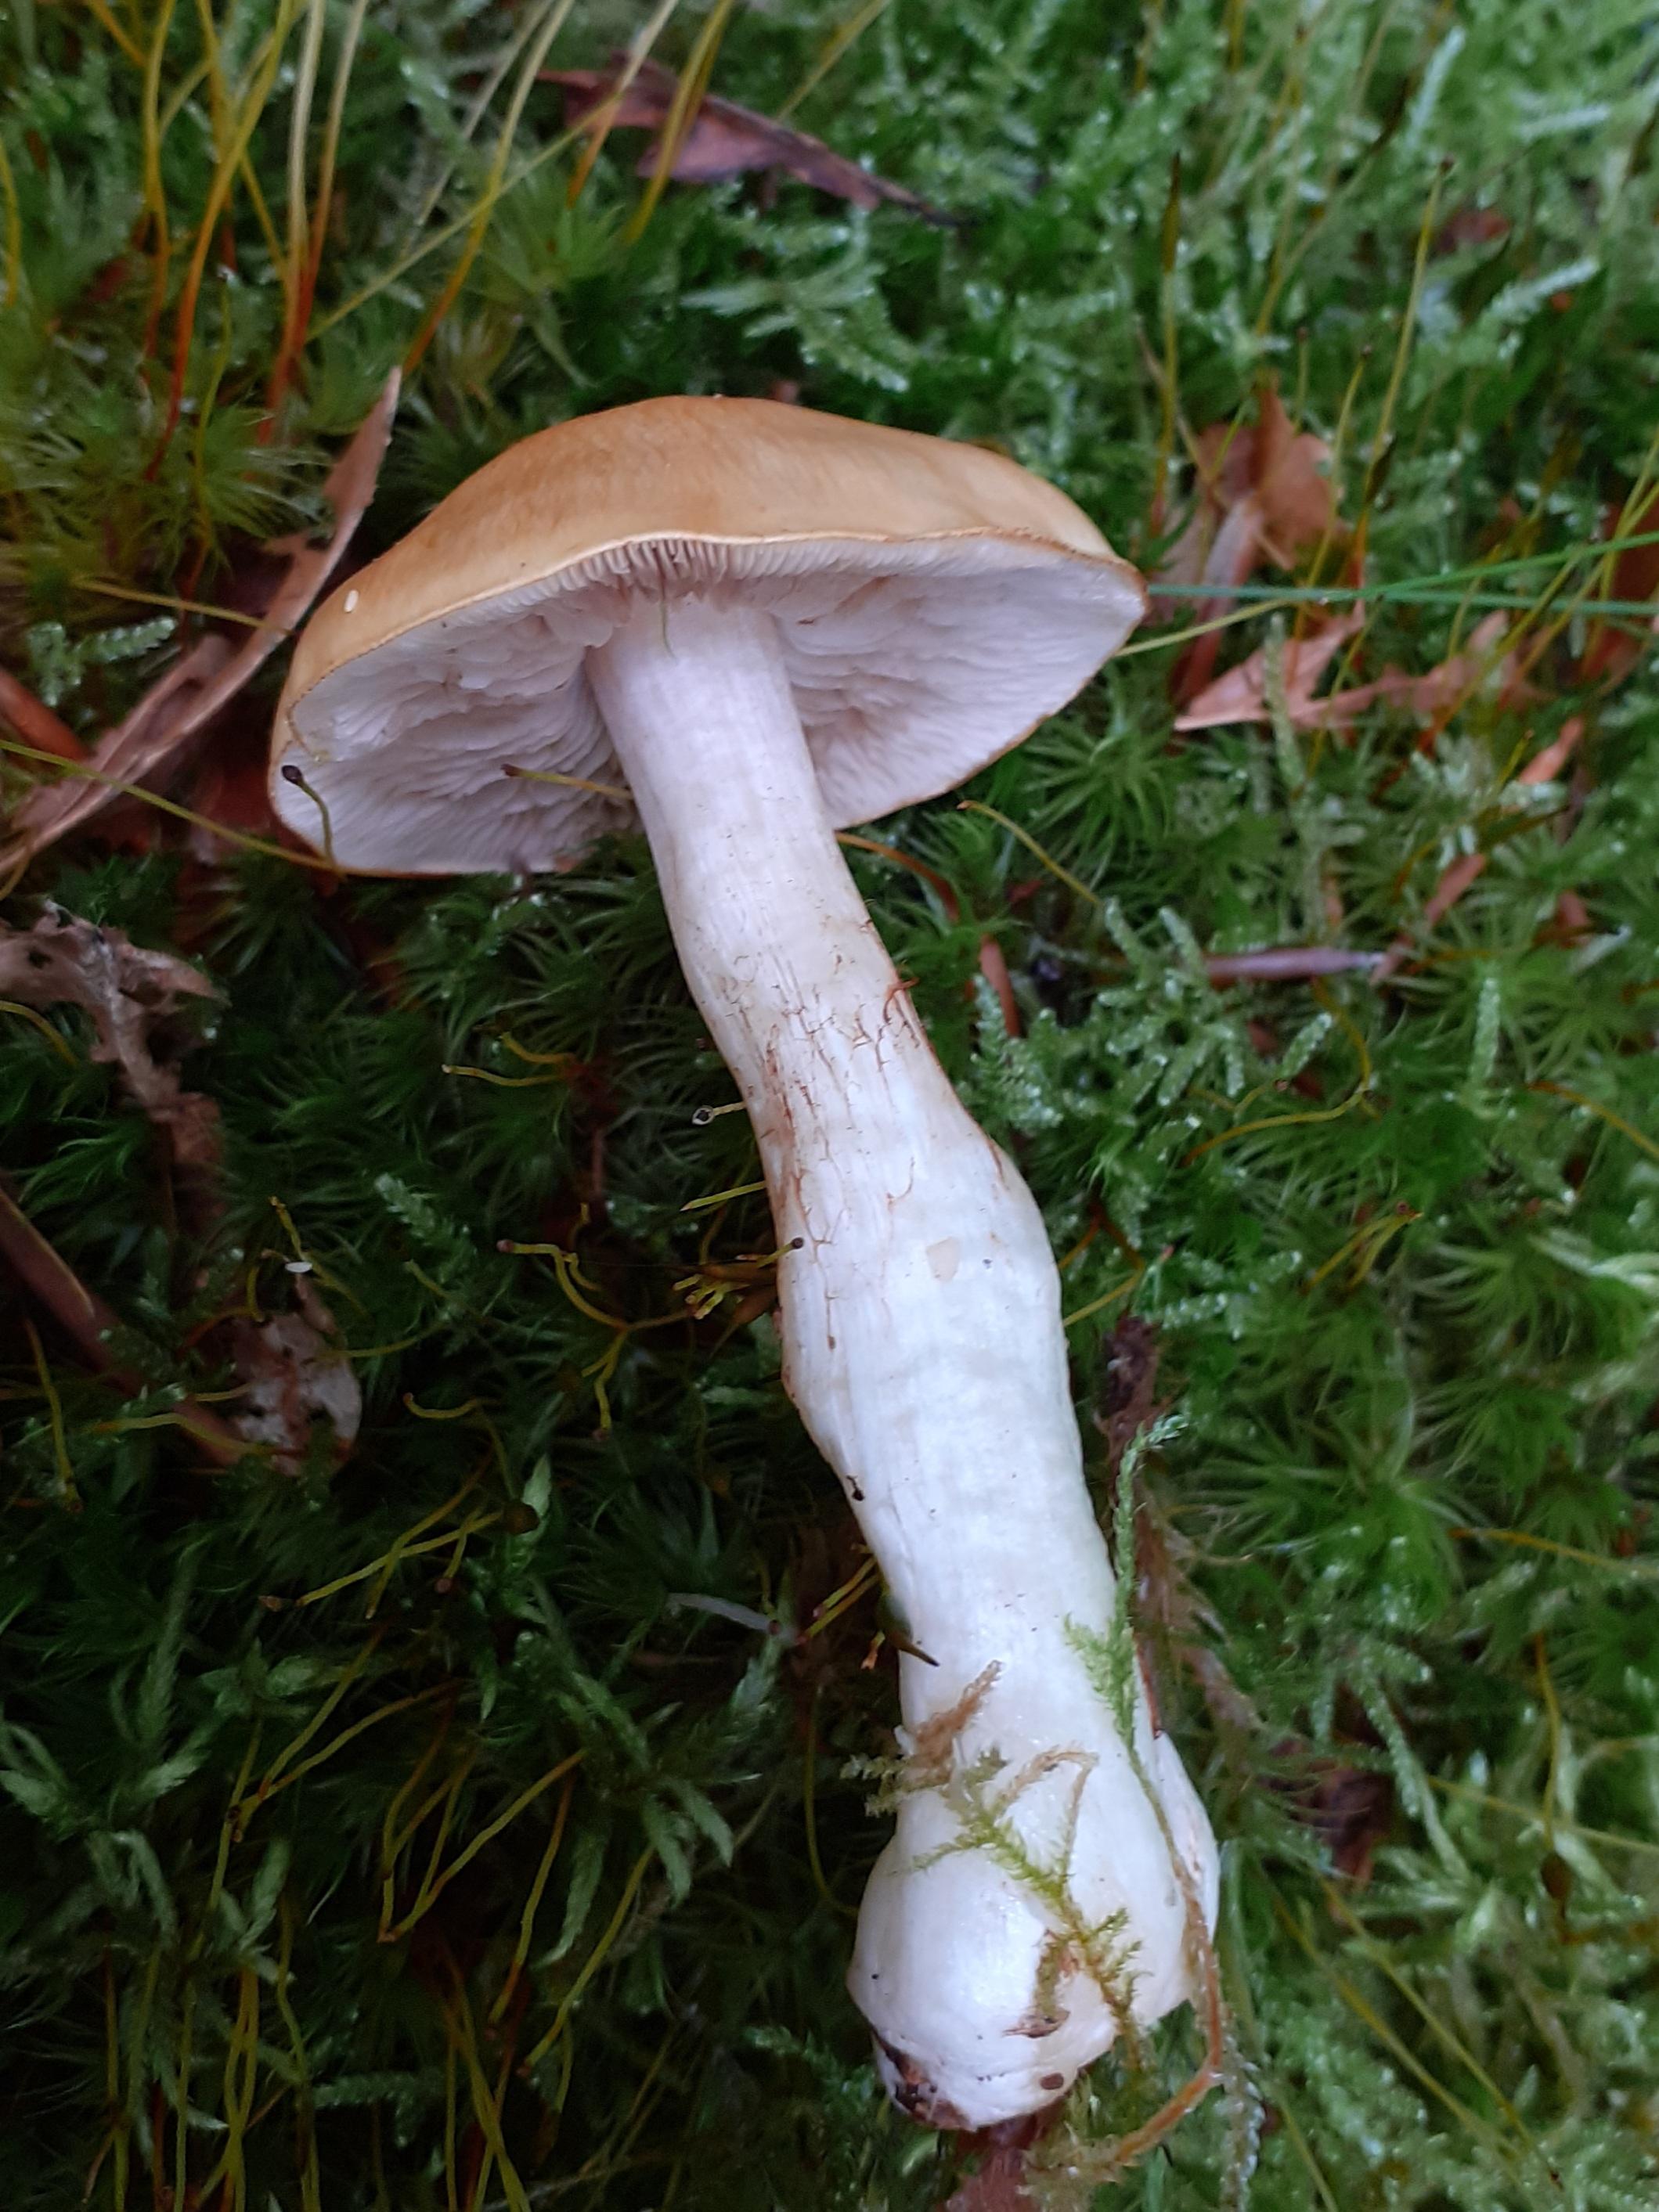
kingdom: Fungi
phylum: Basidiomycota
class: Agaricomycetes
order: Agaricales
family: Cortinariaceae
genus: Thaxterogaster
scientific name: Thaxterogaster
